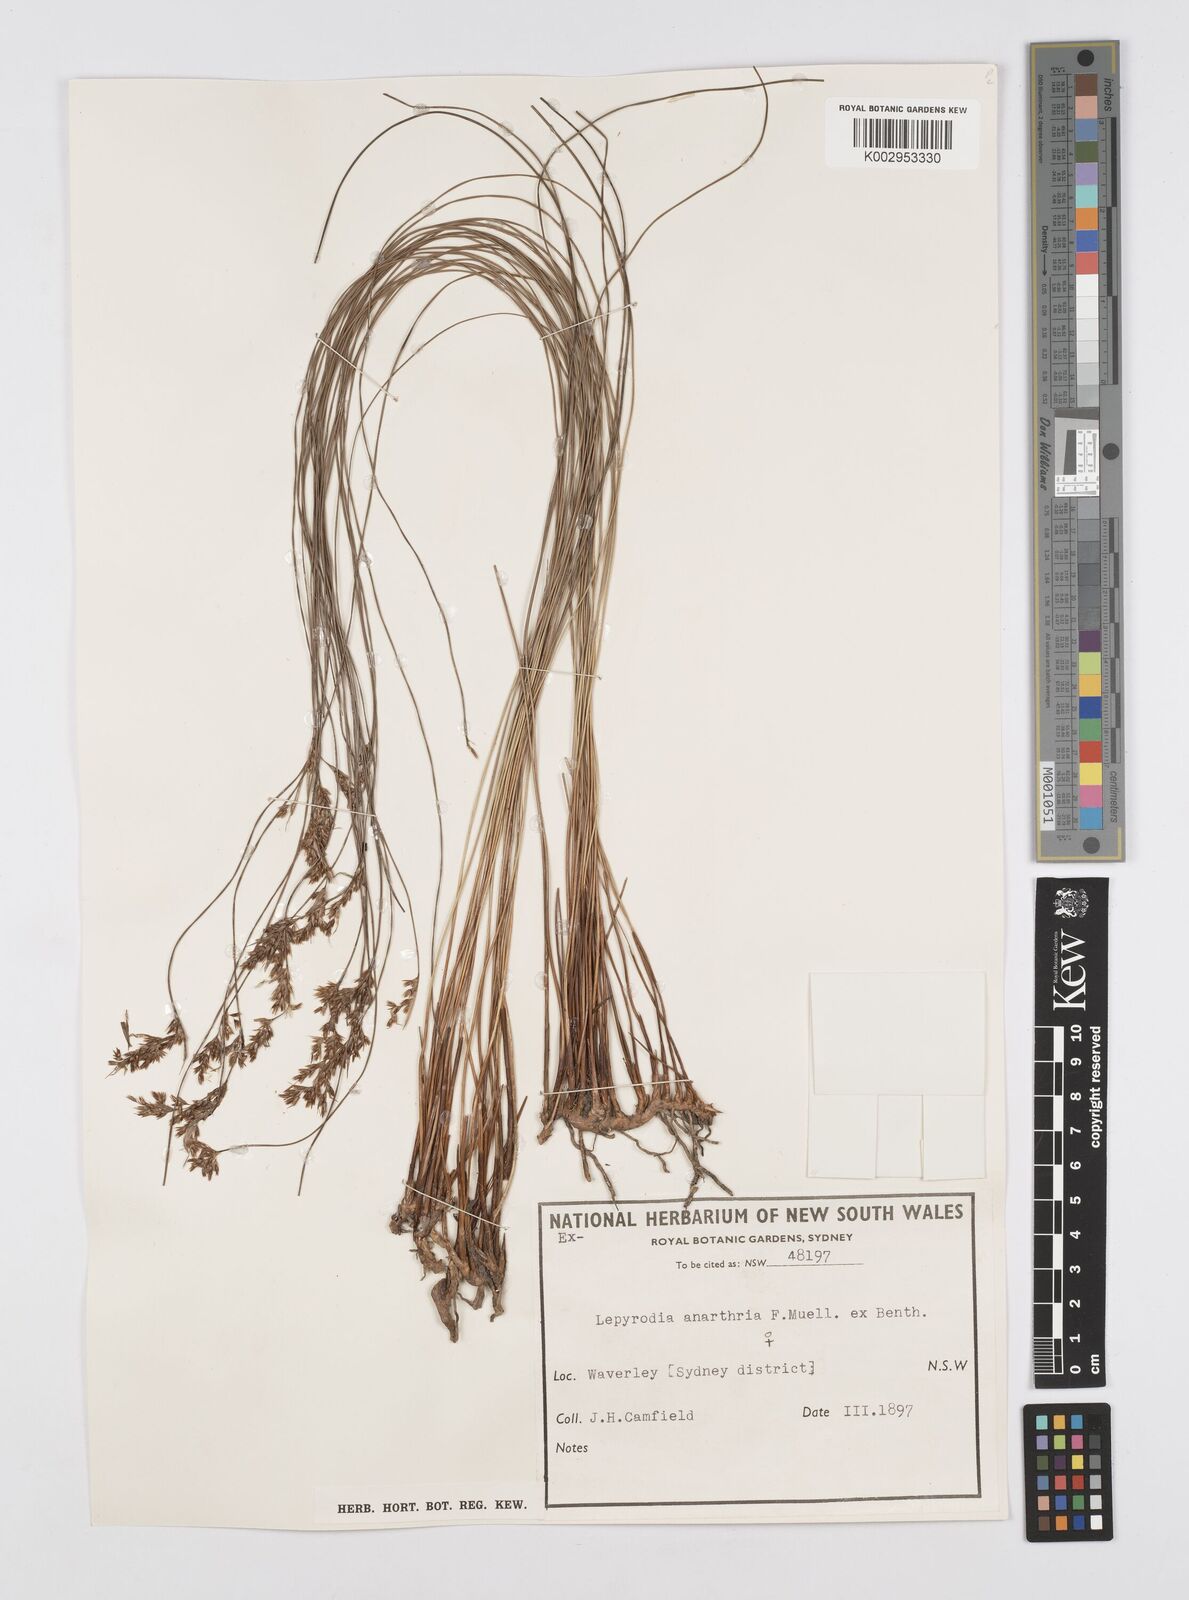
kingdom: Plantae
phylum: Tracheophyta
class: Liliopsida
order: Poales
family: Restionaceae
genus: Lepyrodia
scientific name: Lepyrodia anarthria
